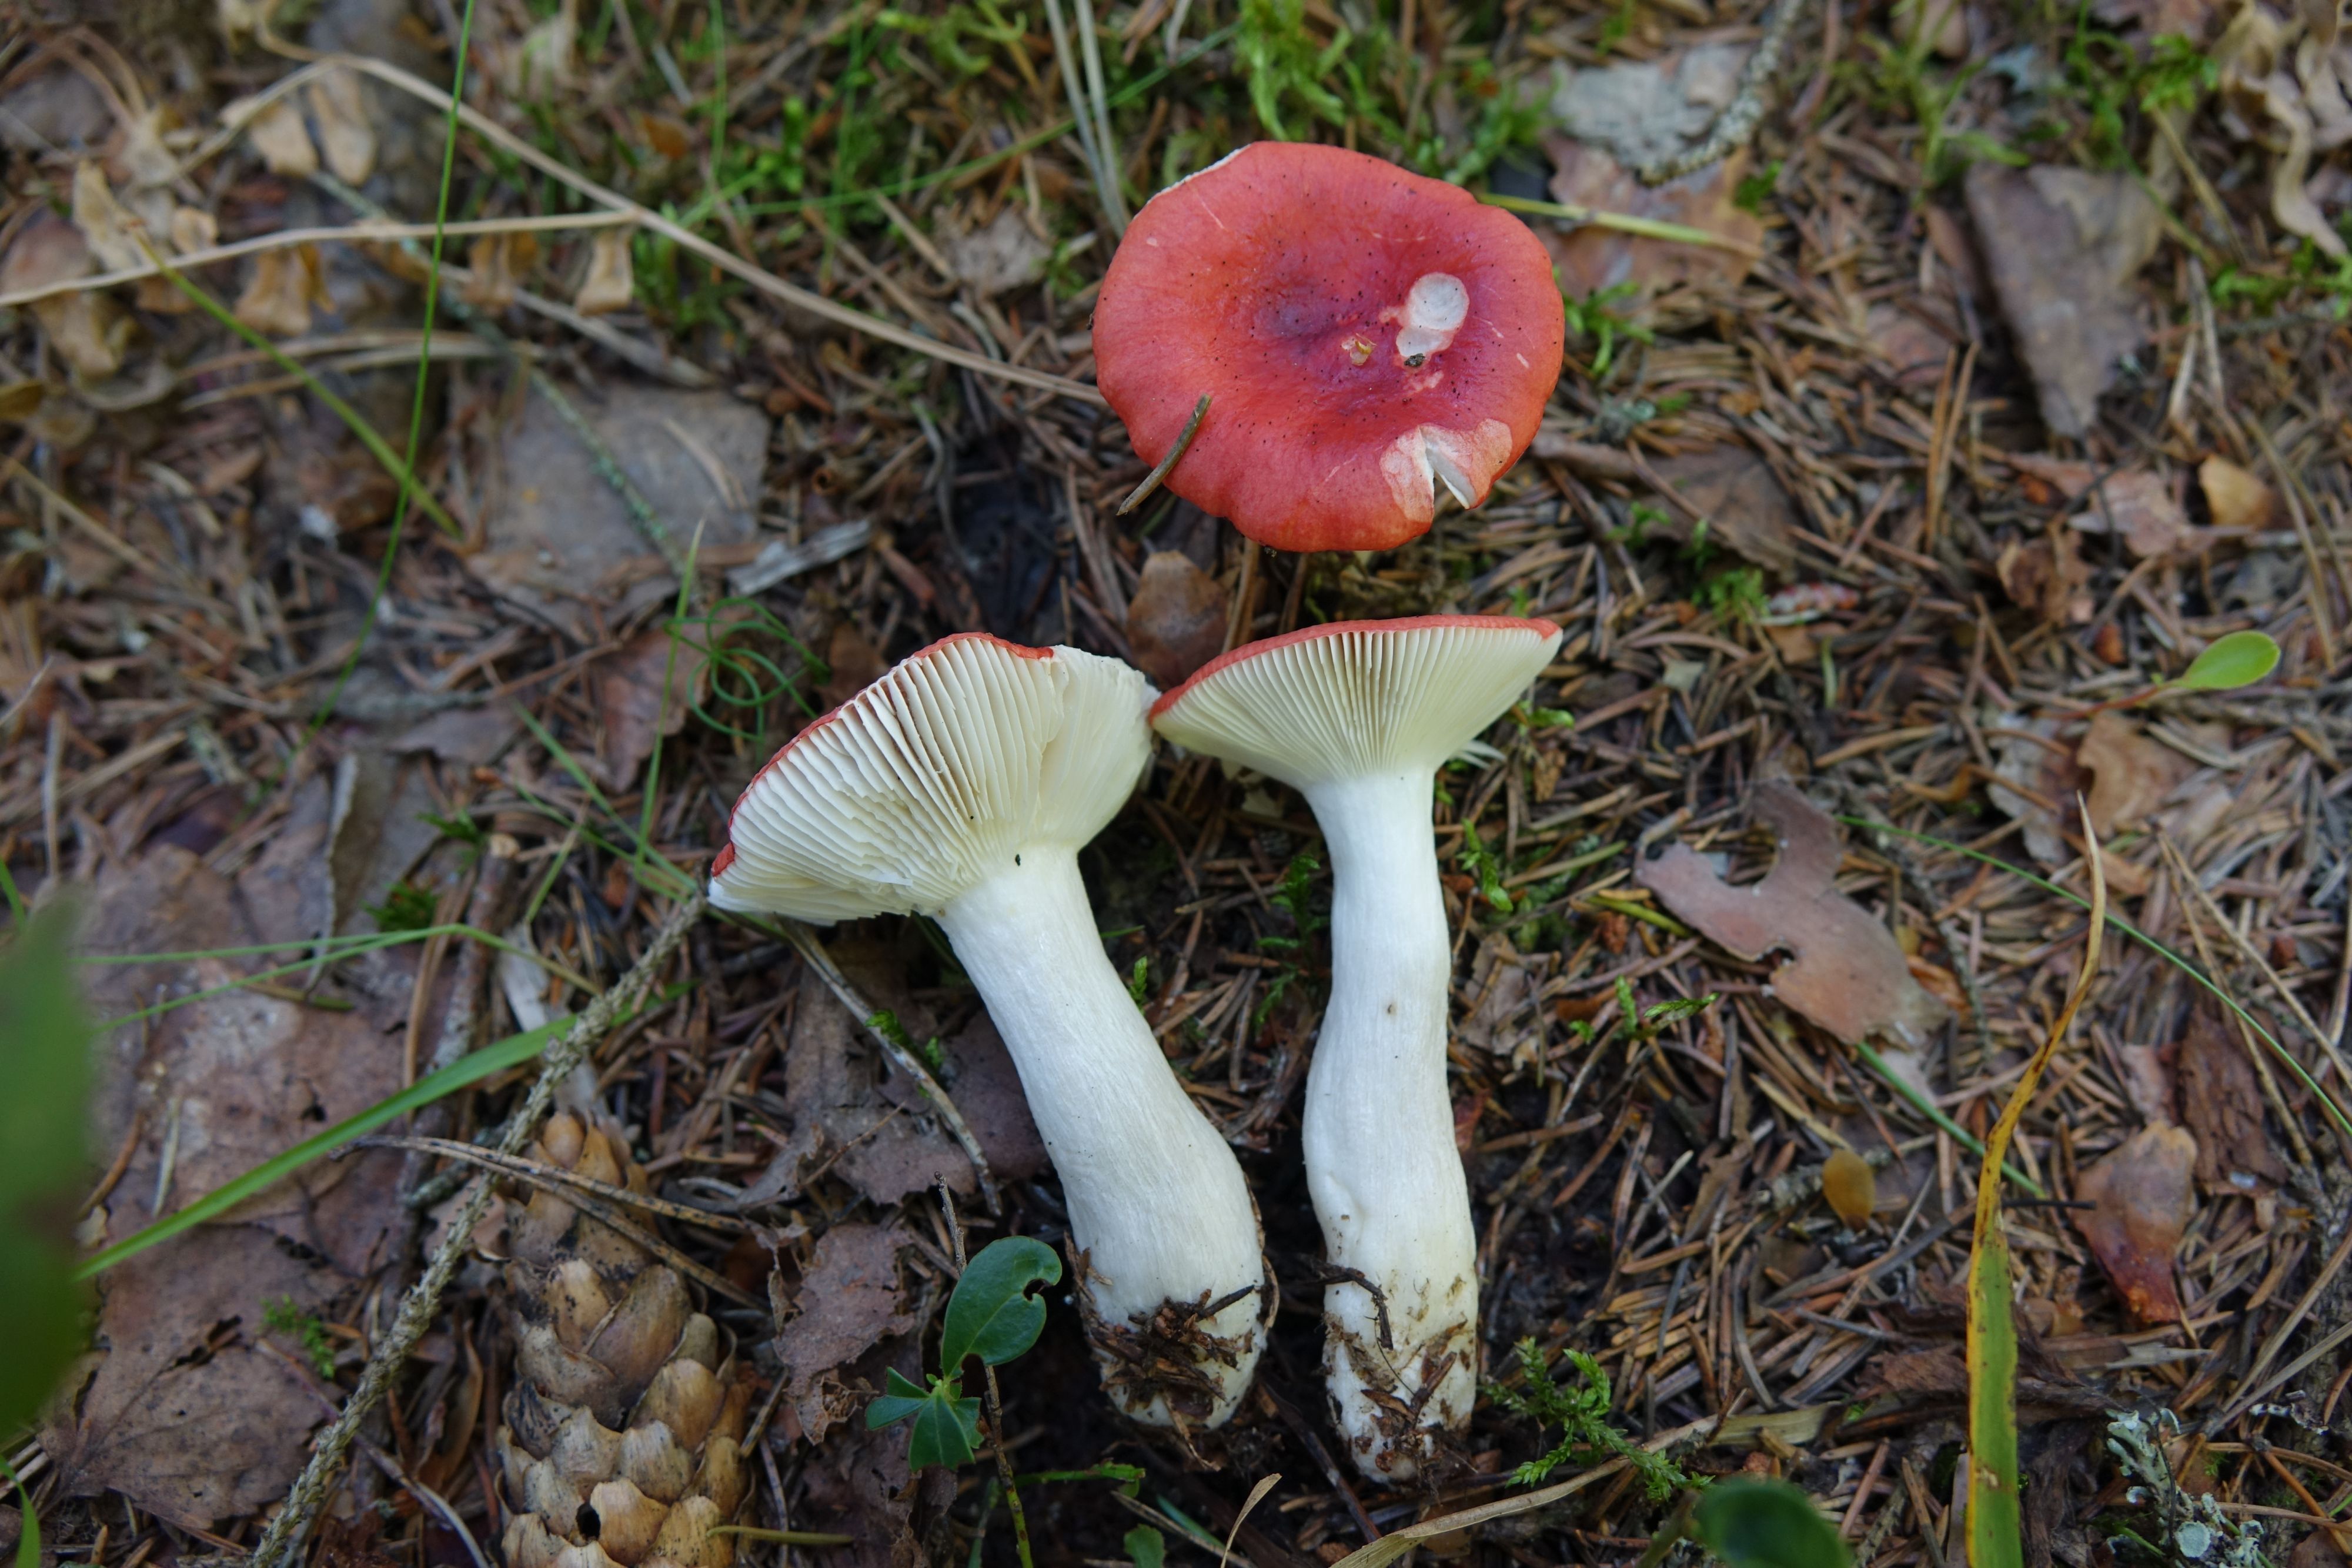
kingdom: Fungi
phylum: Basidiomycota
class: Agaricomycetes
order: Russulales
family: Russulaceae
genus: Russula
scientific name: Russula emetica
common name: Sickener
